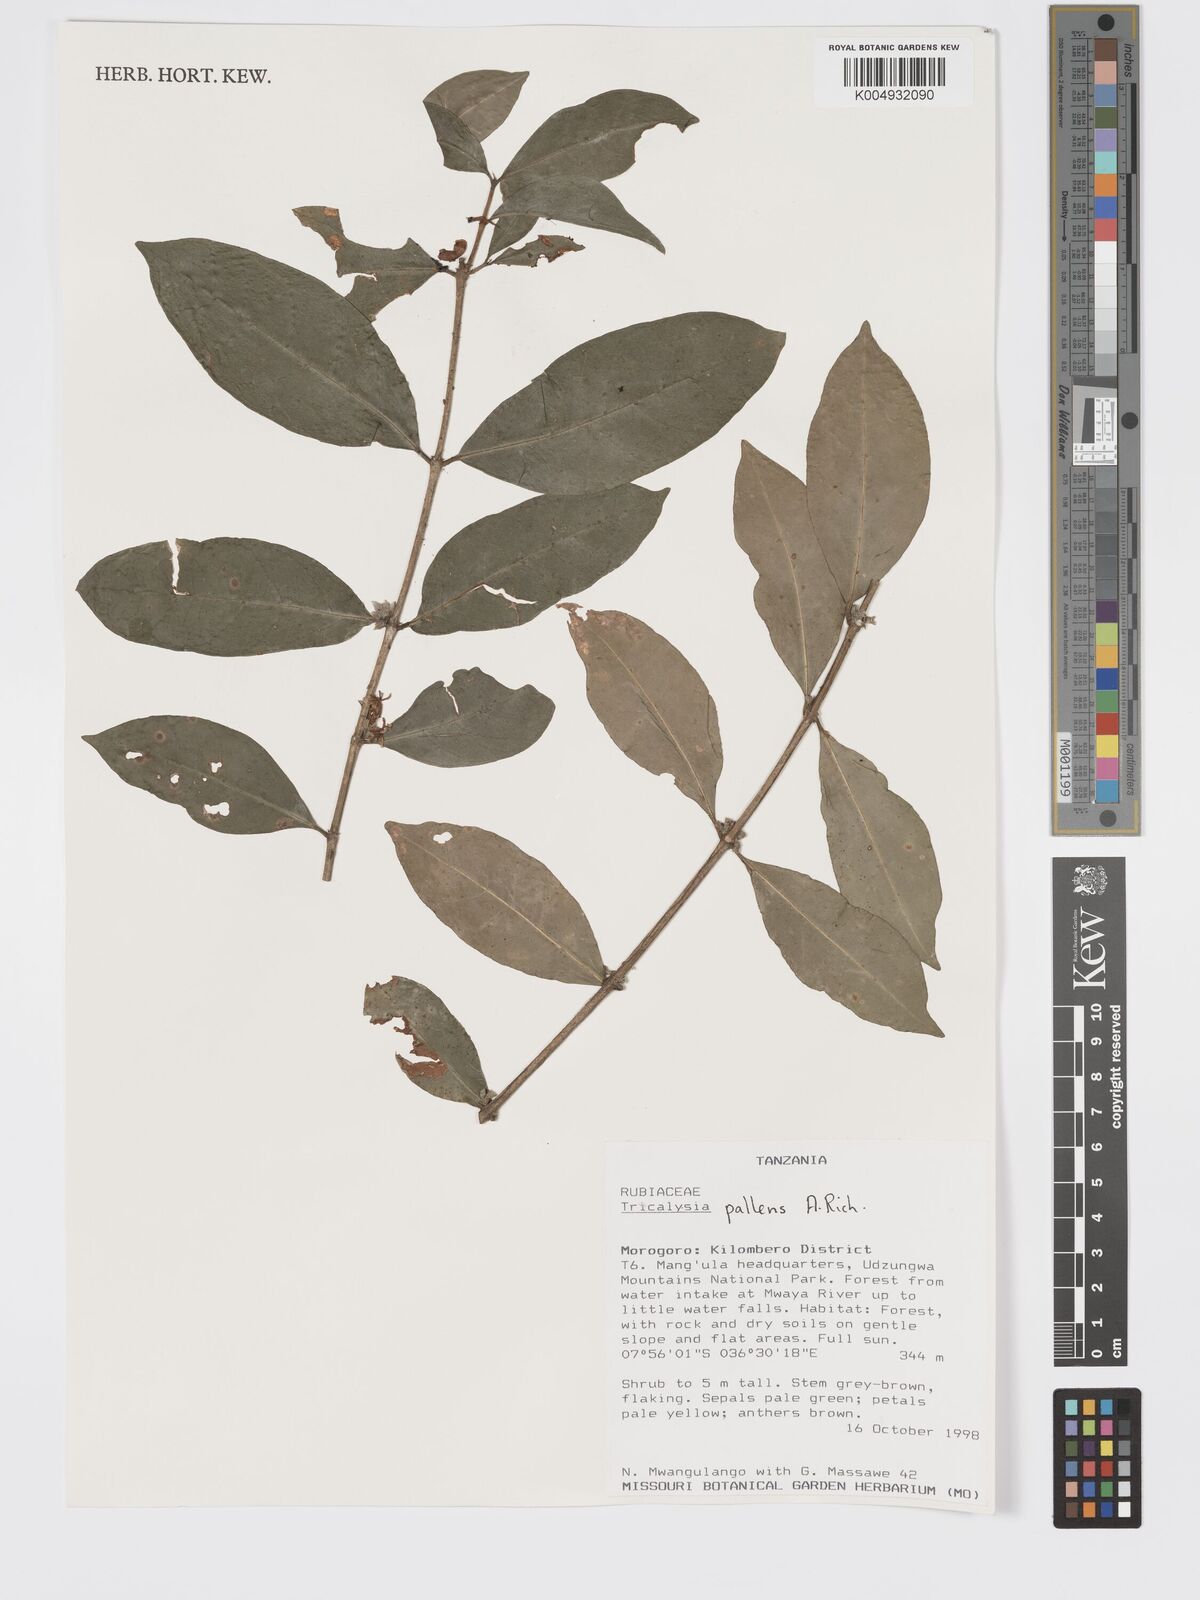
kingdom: Plantae
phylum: Tracheophyta
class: Magnoliopsida
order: Gentianales
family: Rubiaceae
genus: Tricalysia
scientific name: Tricalysia pallens
